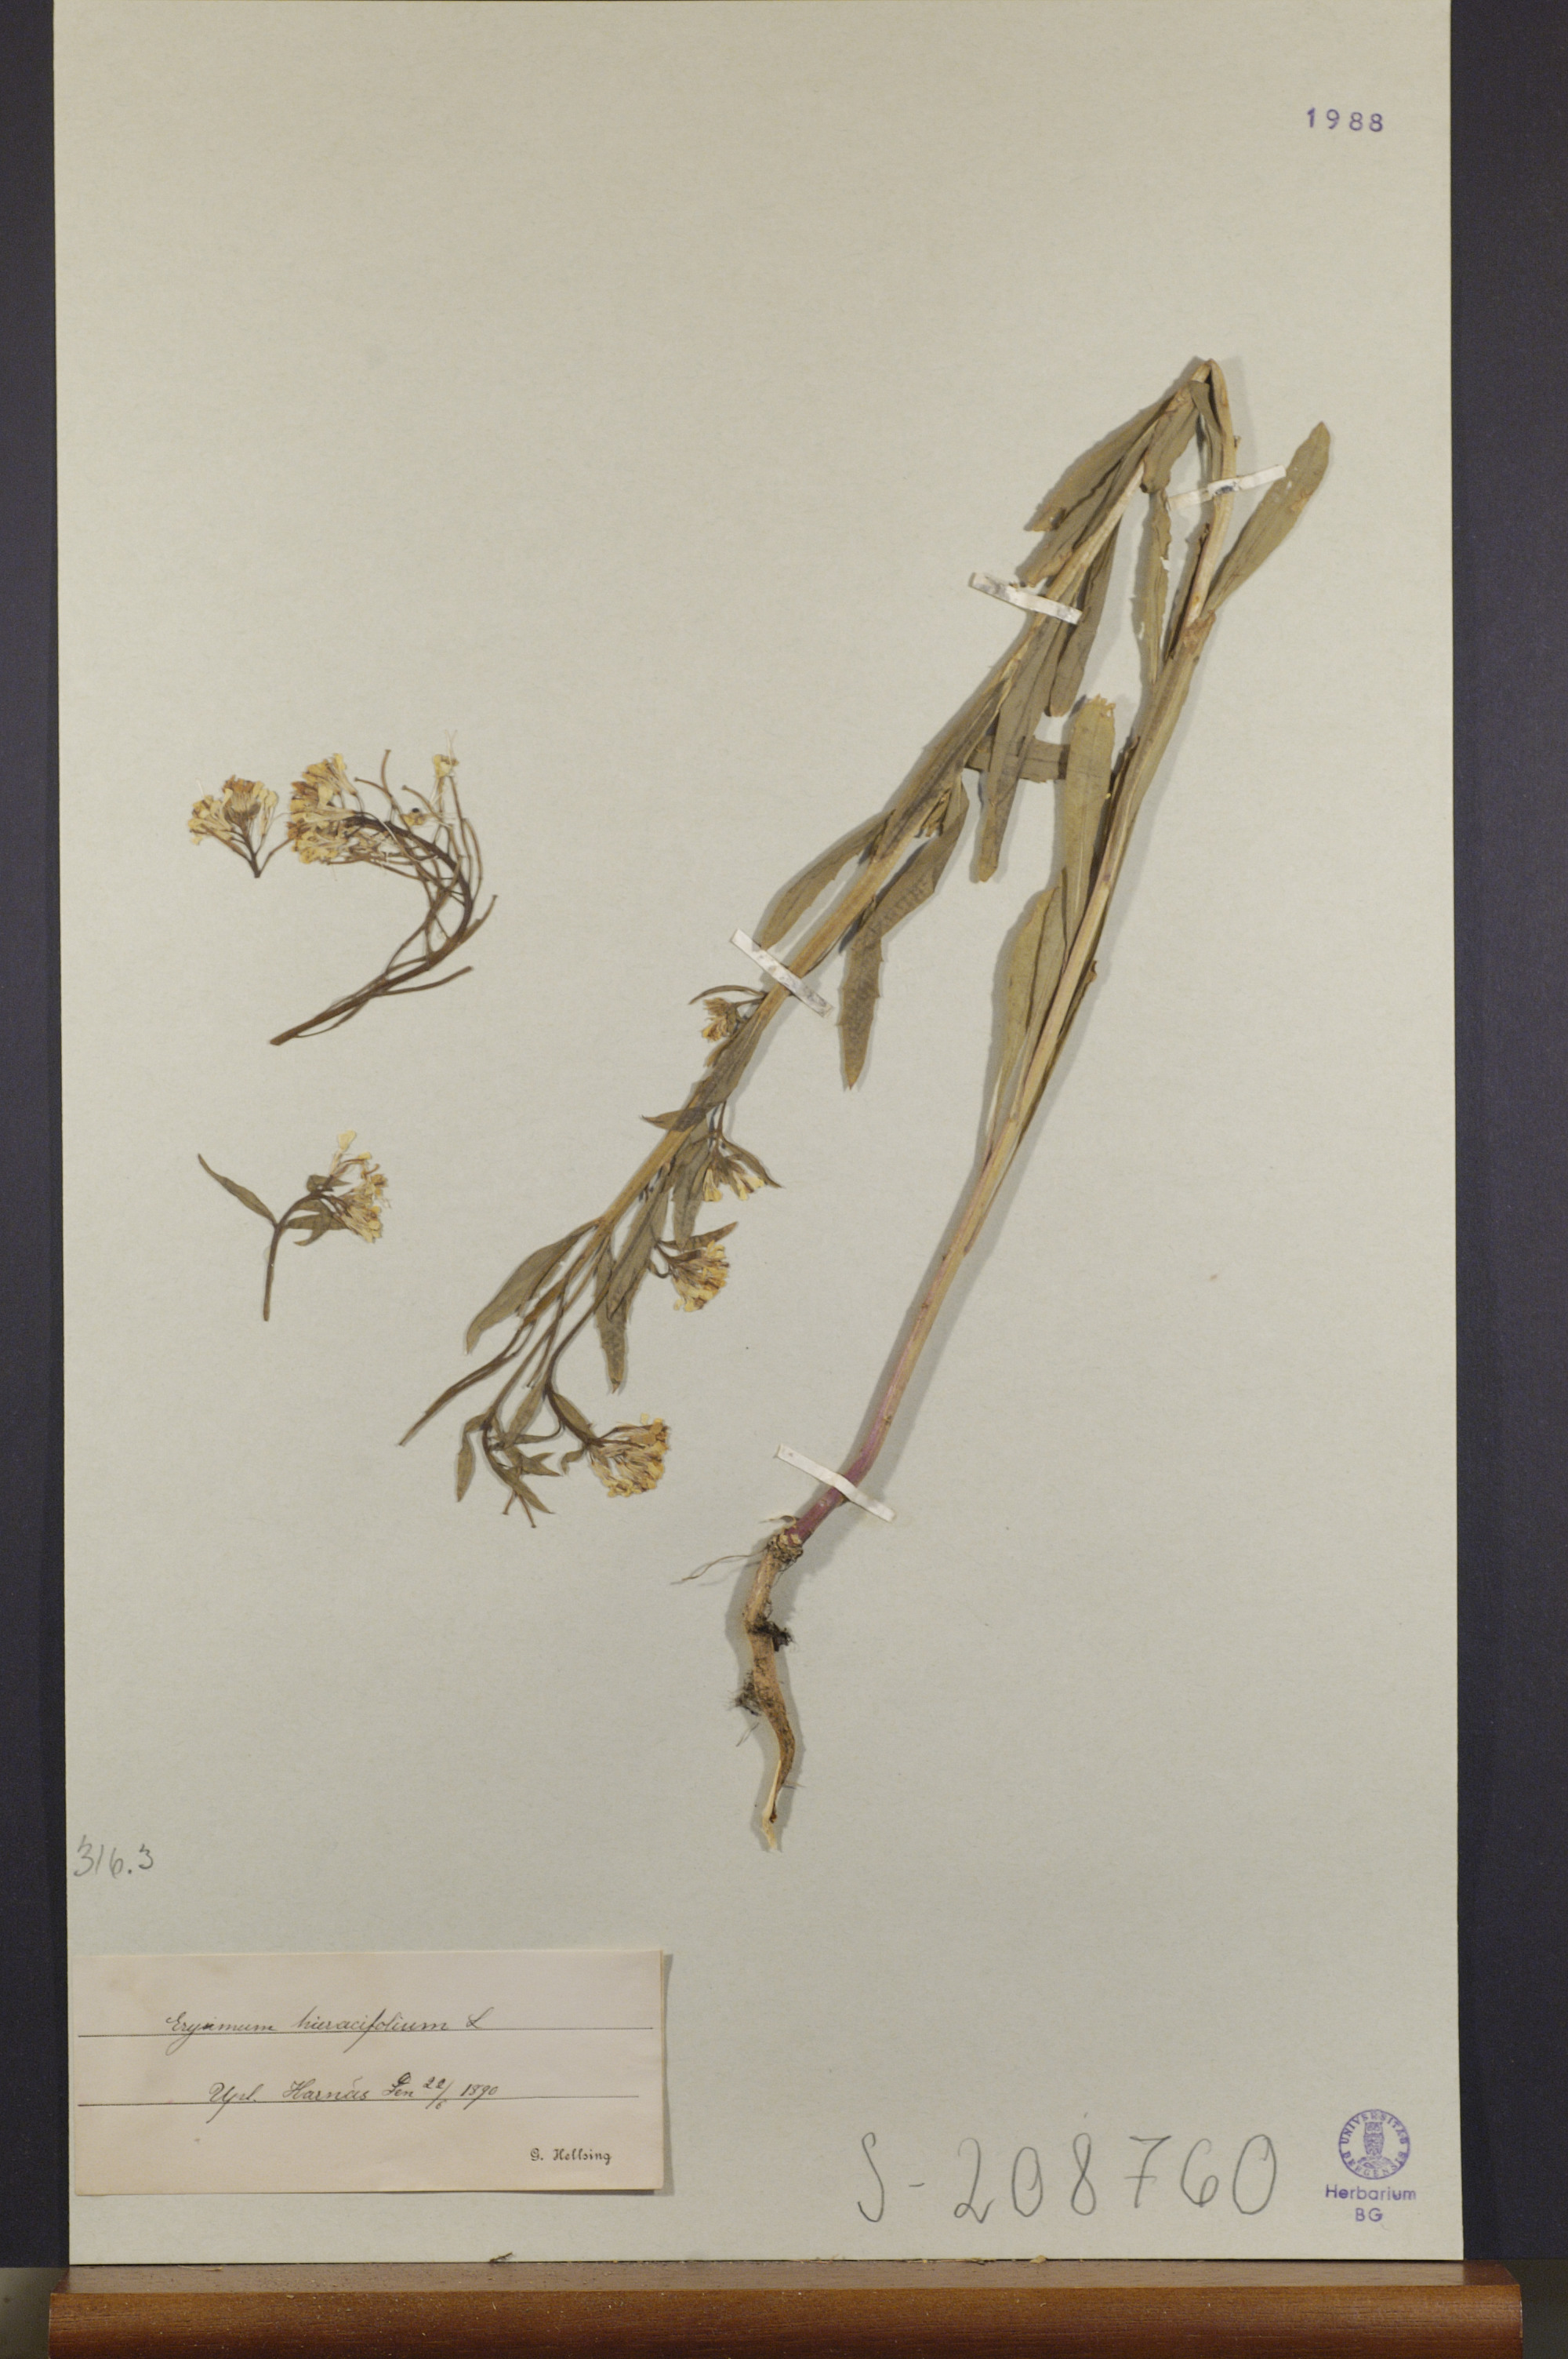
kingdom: Plantae
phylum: Tracheophyta
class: Magnoliopsida
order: Brassicales
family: Brassicaceae
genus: Erysimum
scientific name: Erysimum hieraciifolium
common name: European wallflower
